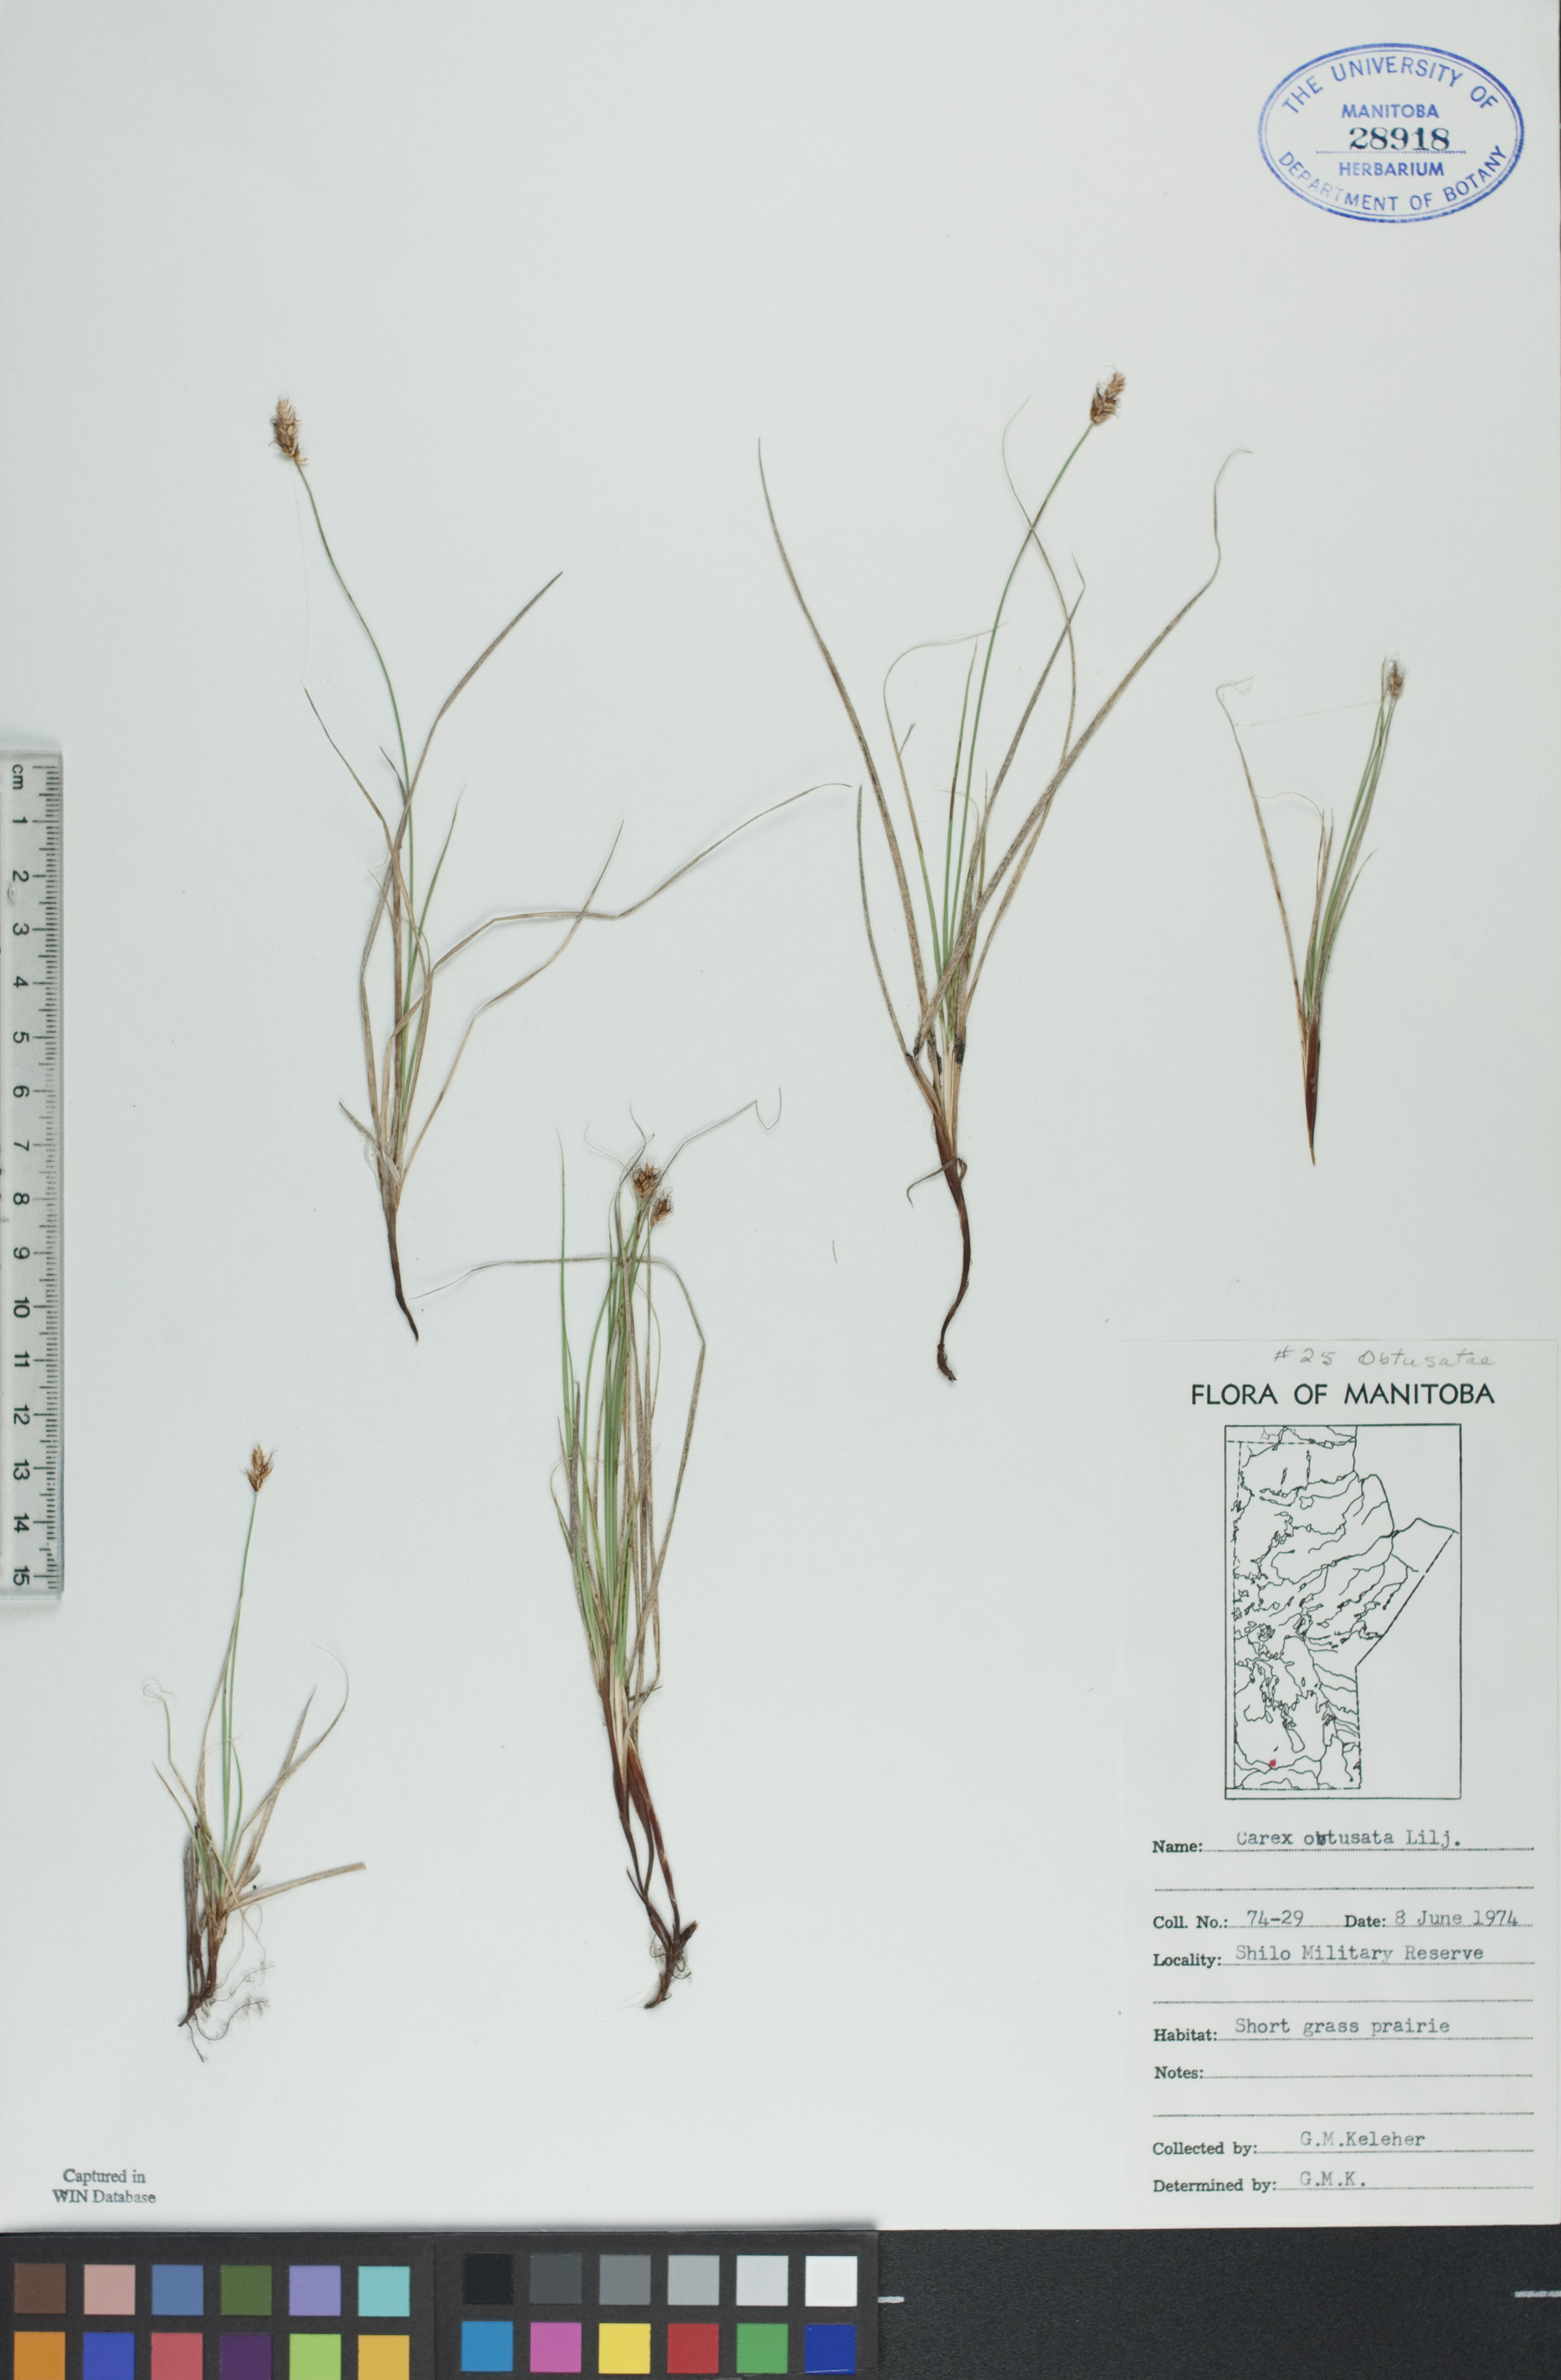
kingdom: Plantae
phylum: Tracheophyta
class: Liliopsida
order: Poales
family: Cyperaceae
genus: Carex
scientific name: Carex obtusata
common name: Blunt sedge
